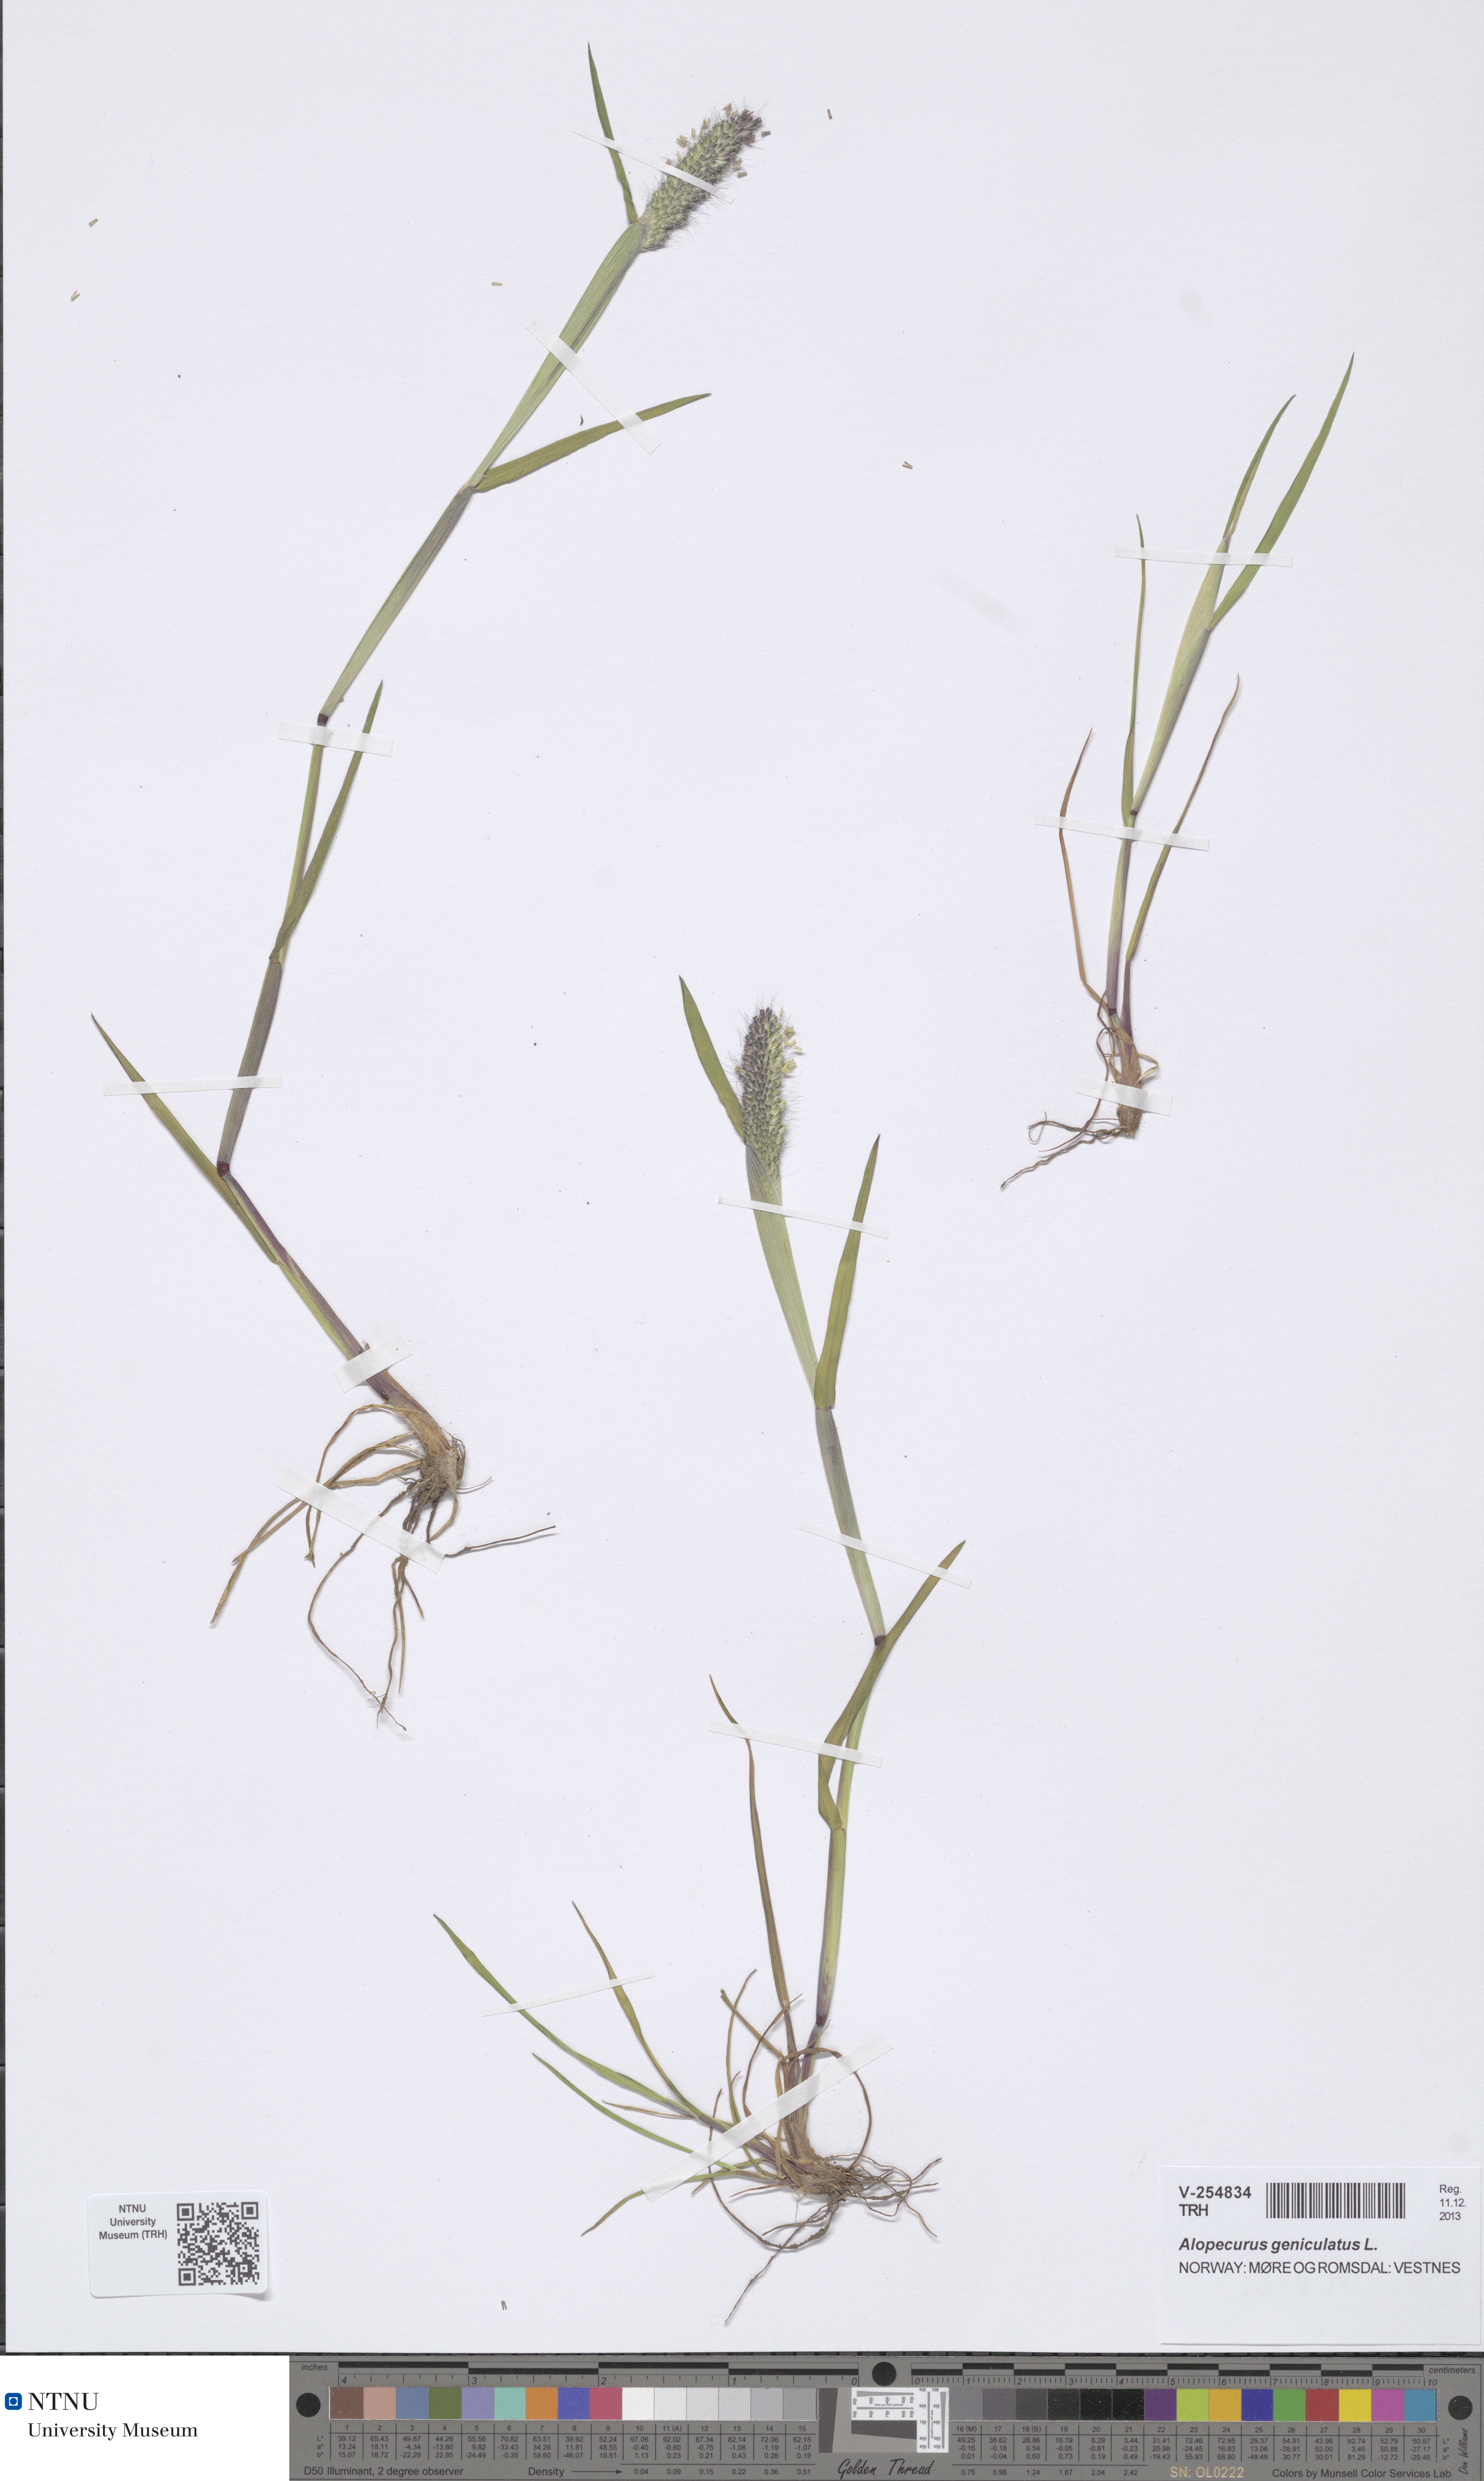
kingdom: Plantae
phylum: Tracheophyta
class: Liliopsida
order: Poales
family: Poaceae
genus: Alopecurus
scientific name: Alopecurus geniculatus
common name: Water foxtail
